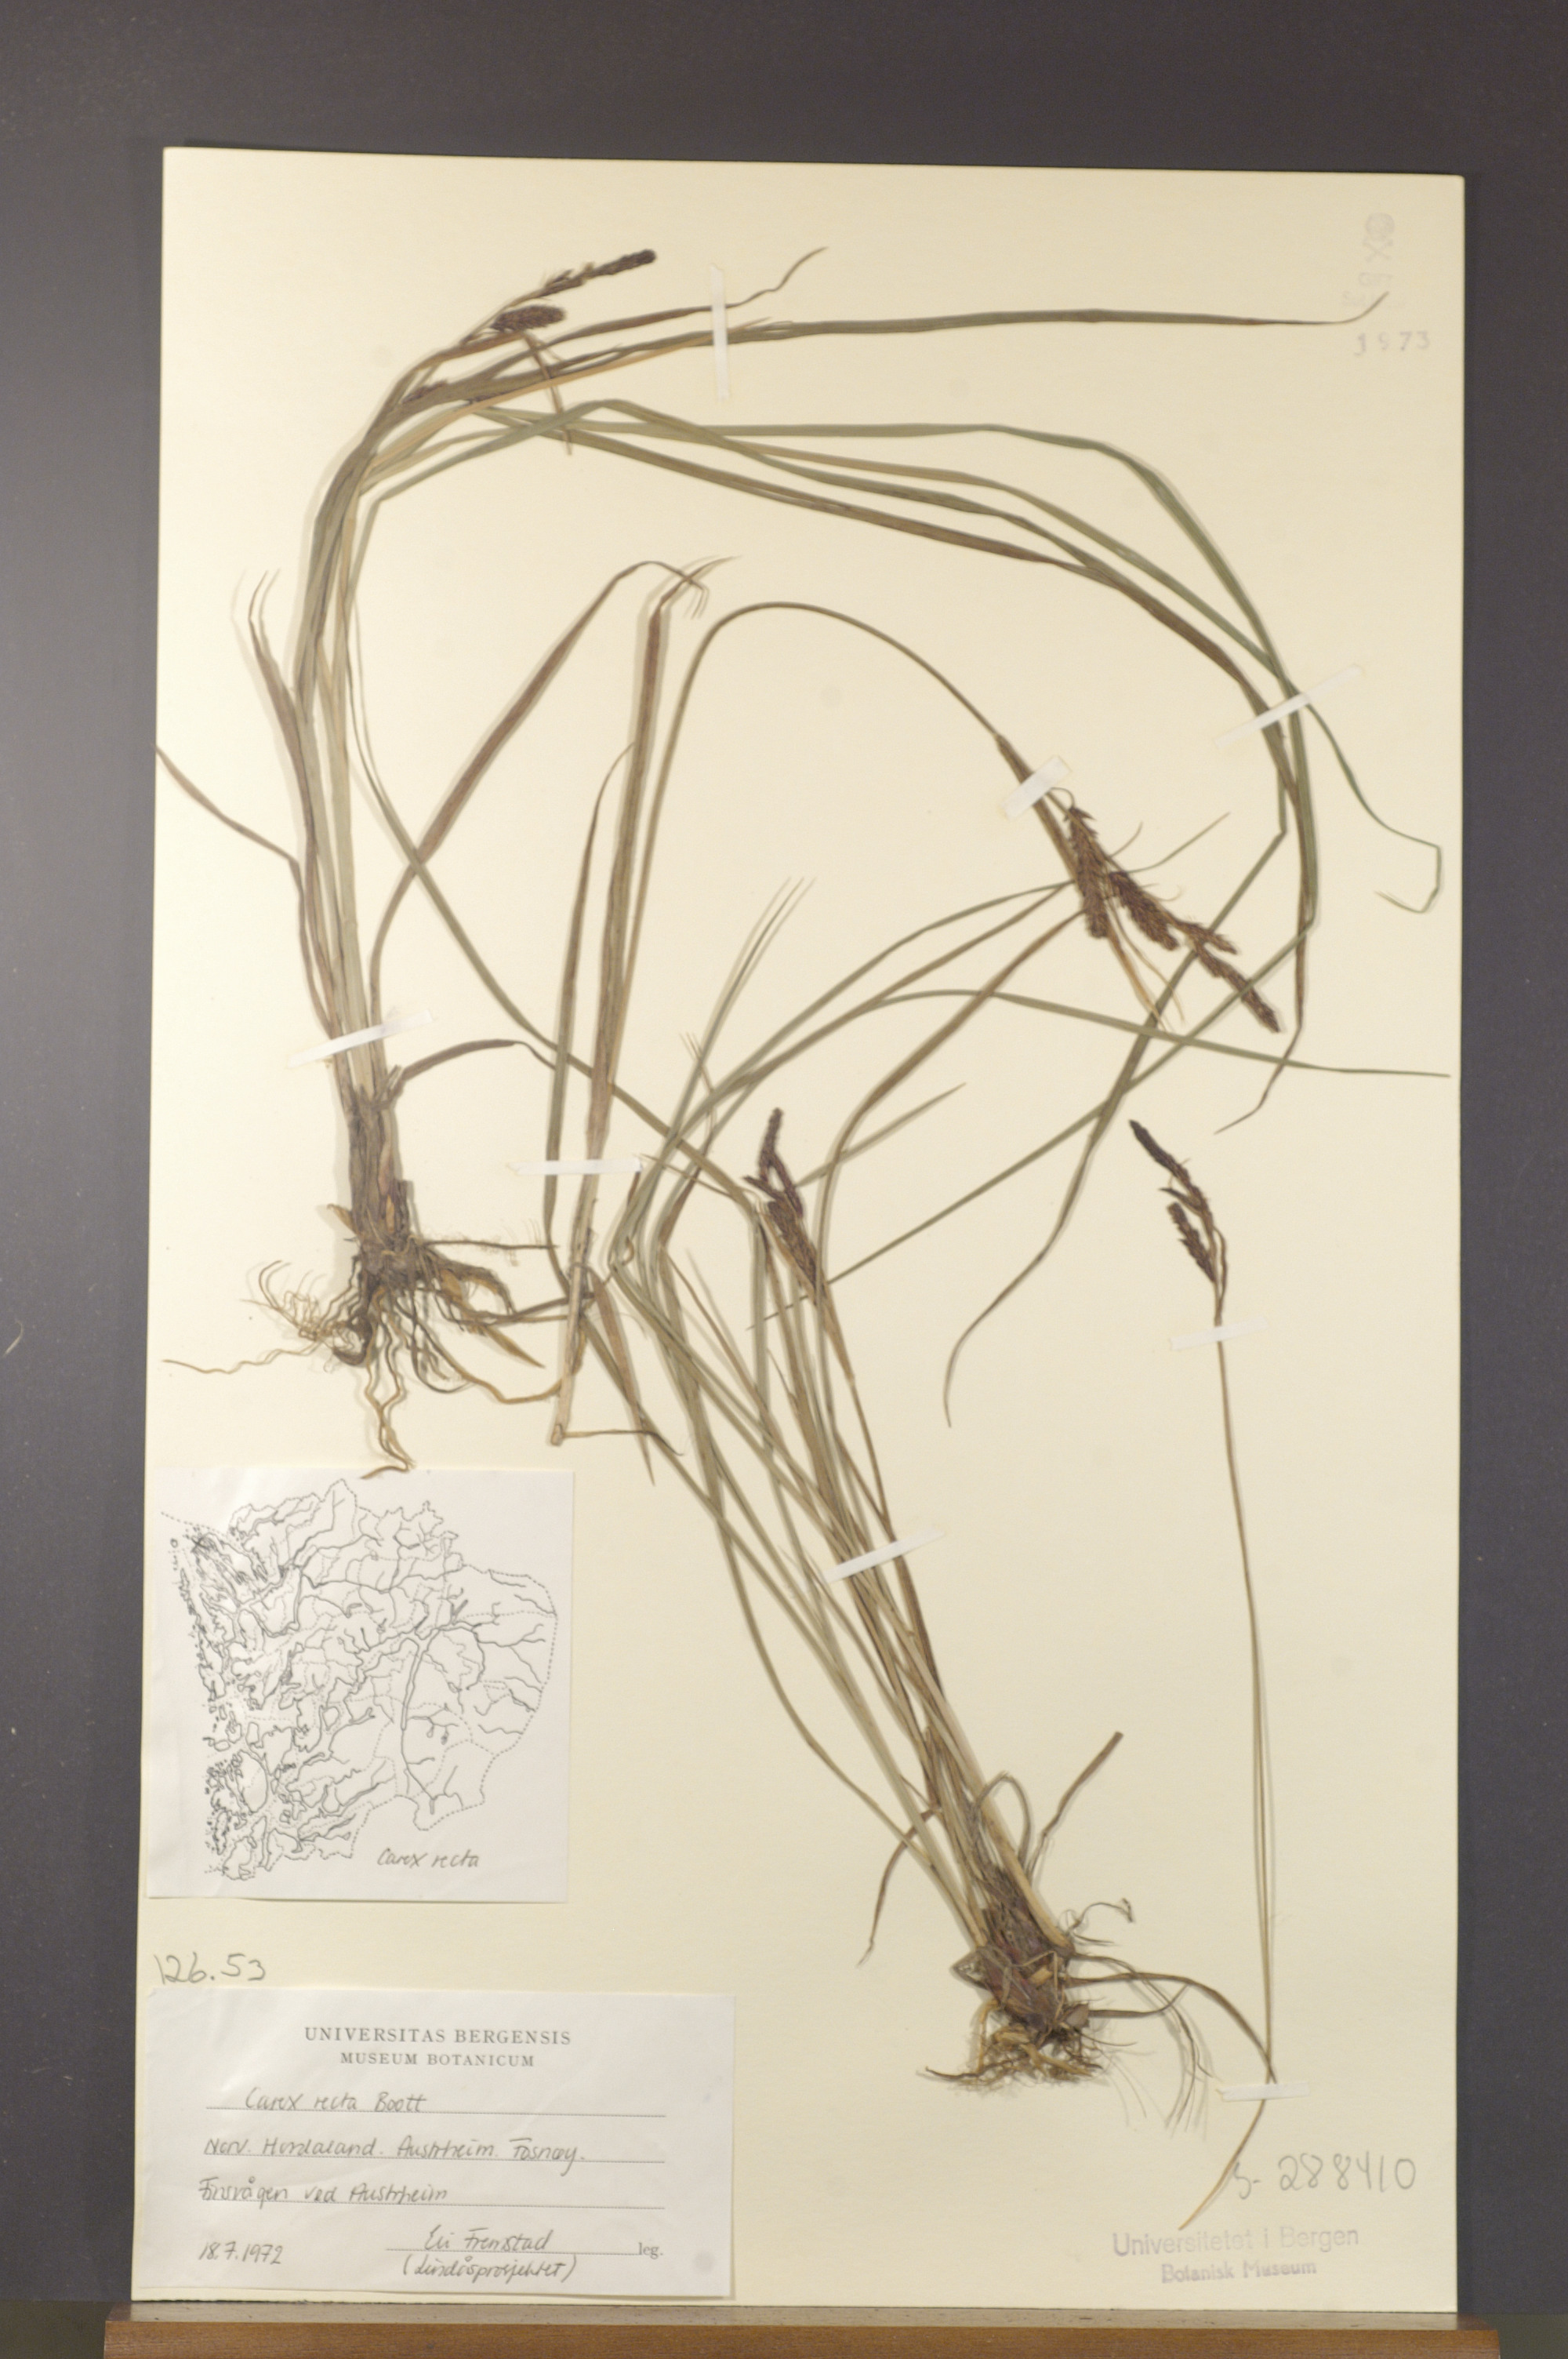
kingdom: Plantae
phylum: Tracheophyta
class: Liliopsida
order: Poales
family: Cyperaceae
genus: Carex
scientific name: Carex recta
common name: Estuarine sedge
